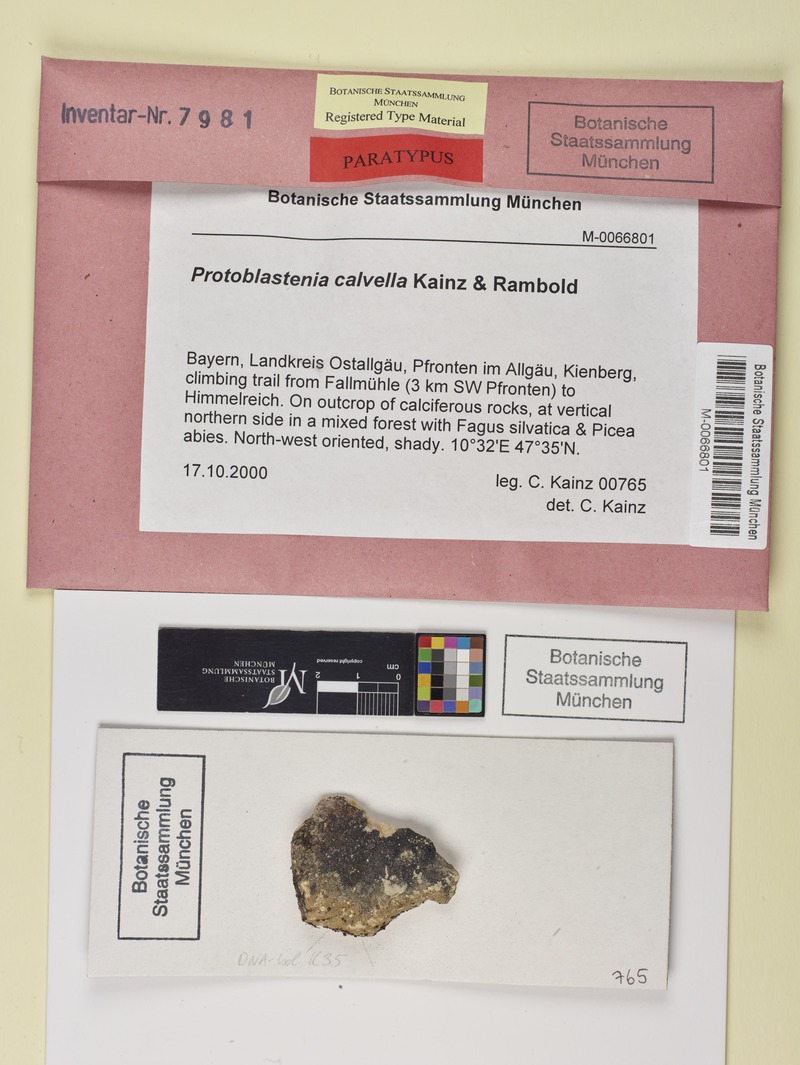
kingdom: Fungi
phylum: Ascomycota
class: Lecanoromycetes
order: Lecanorales
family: Psoraceae
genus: Protoblastenia
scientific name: Protoblastenia calvella
